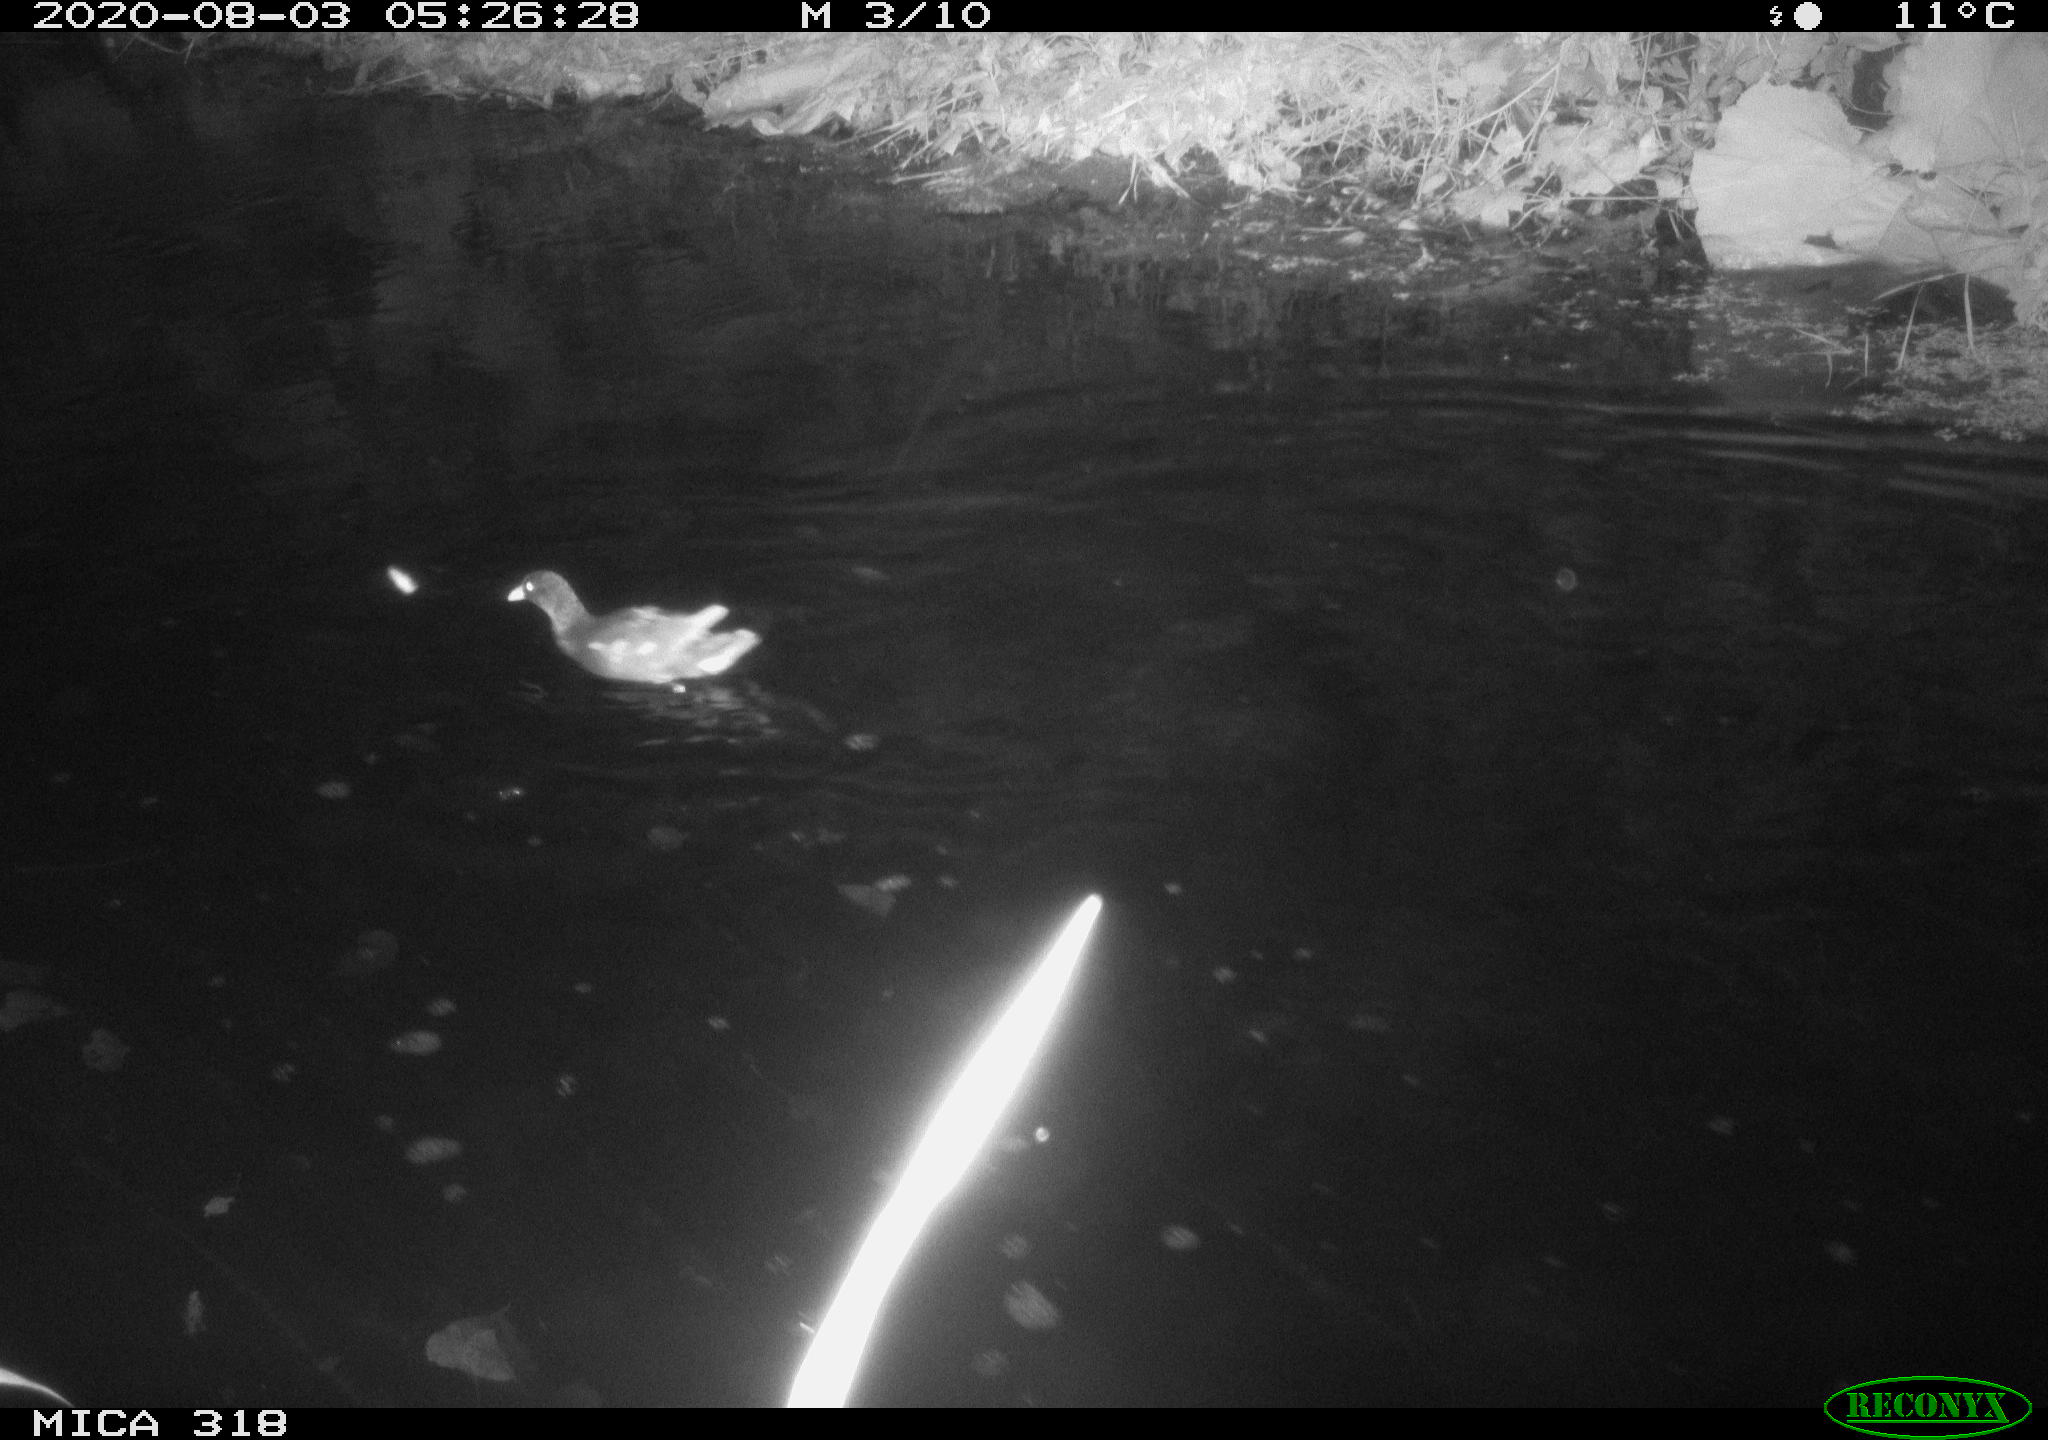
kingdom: Animalia
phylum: Chordata
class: Aves
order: Gruiformes
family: Rallidae
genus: Gallinula
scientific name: Gallinula chloropus
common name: Common moorhen
